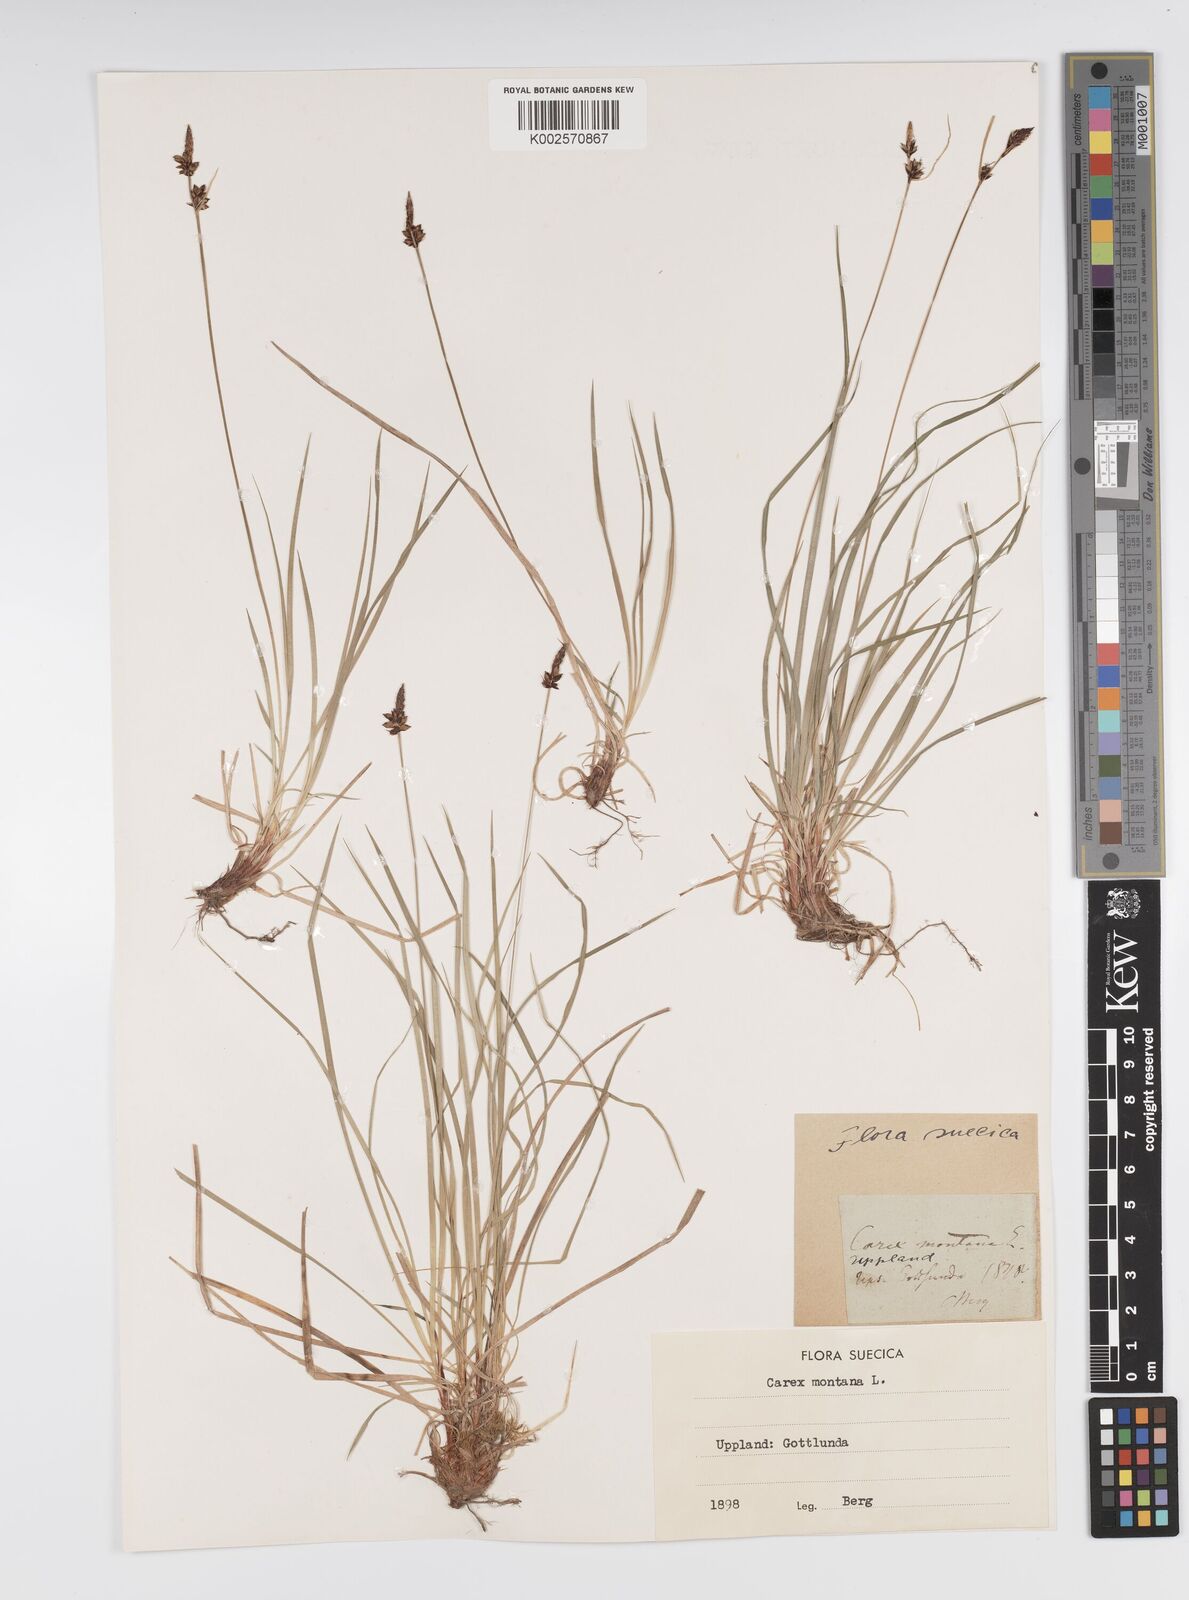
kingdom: Plantae
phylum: Tracheophyta
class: Liliopsida
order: Poales
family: Cyperaceae
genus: Carex
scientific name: Carex montana
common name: Soft-leaved sedge
